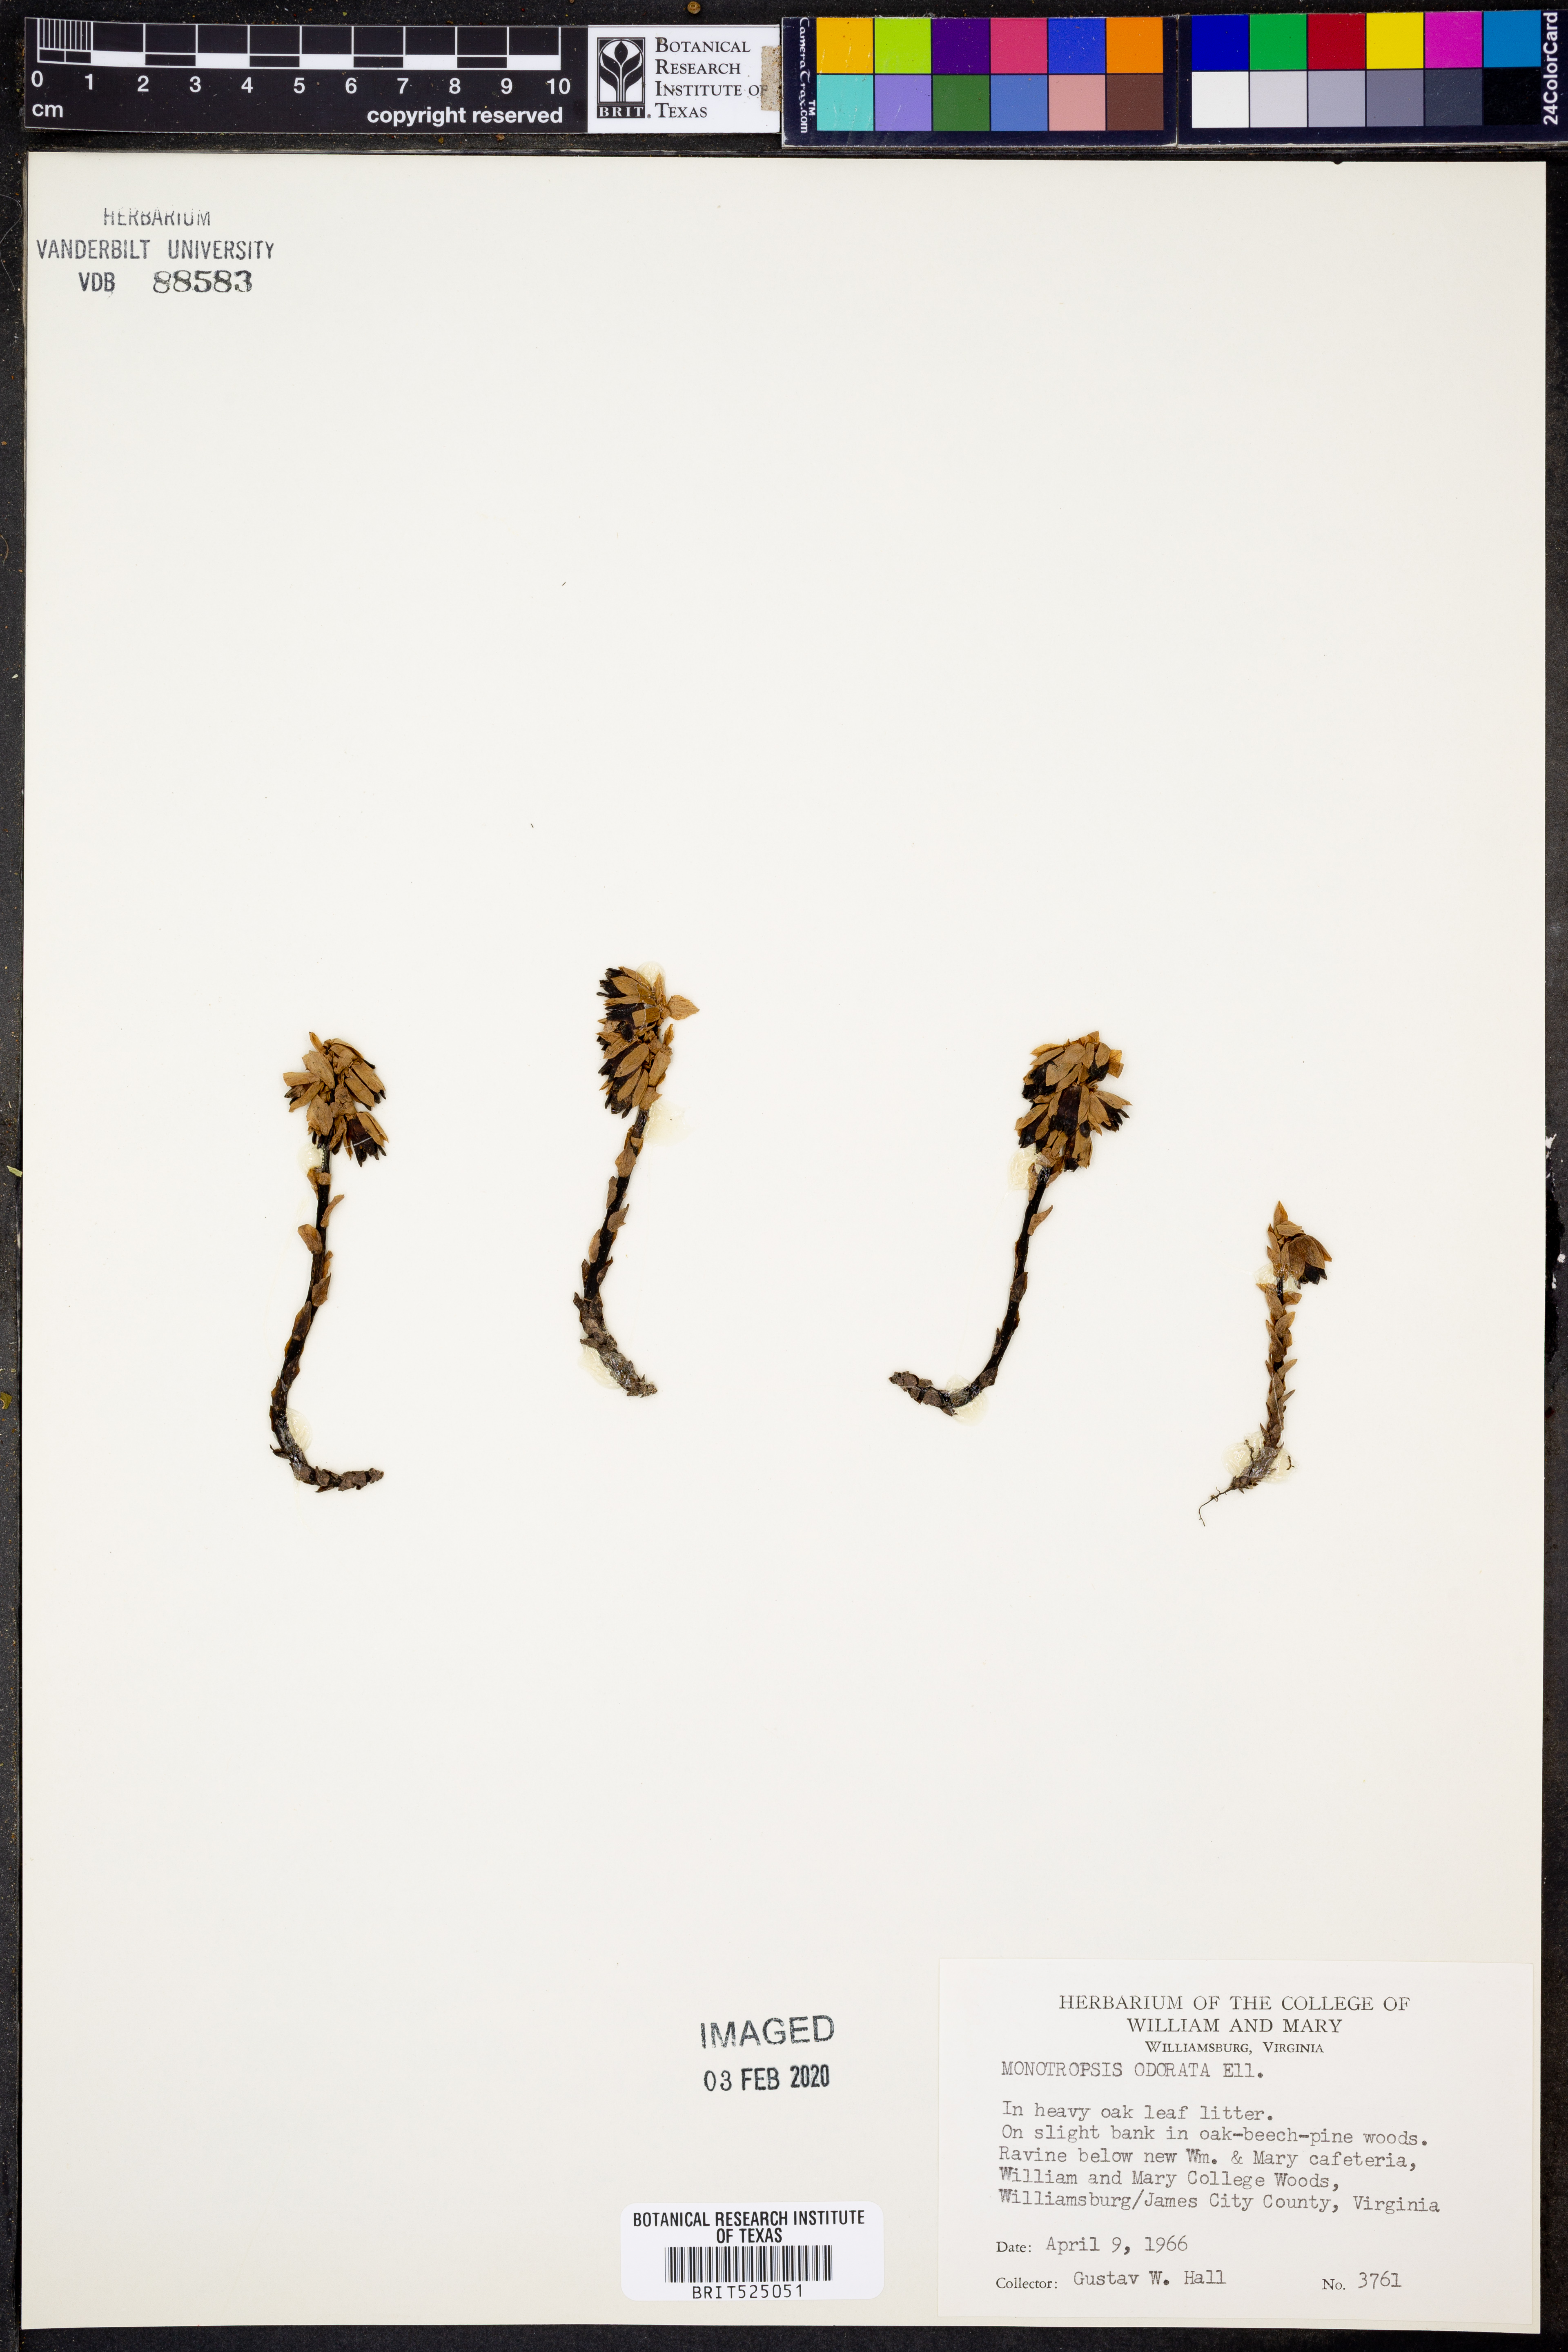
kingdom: Plantae
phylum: Tracheophyta
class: Magnoliopsida
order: Ericales
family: Ericaceae
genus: Monotropsis
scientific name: Monotropsis odorata
